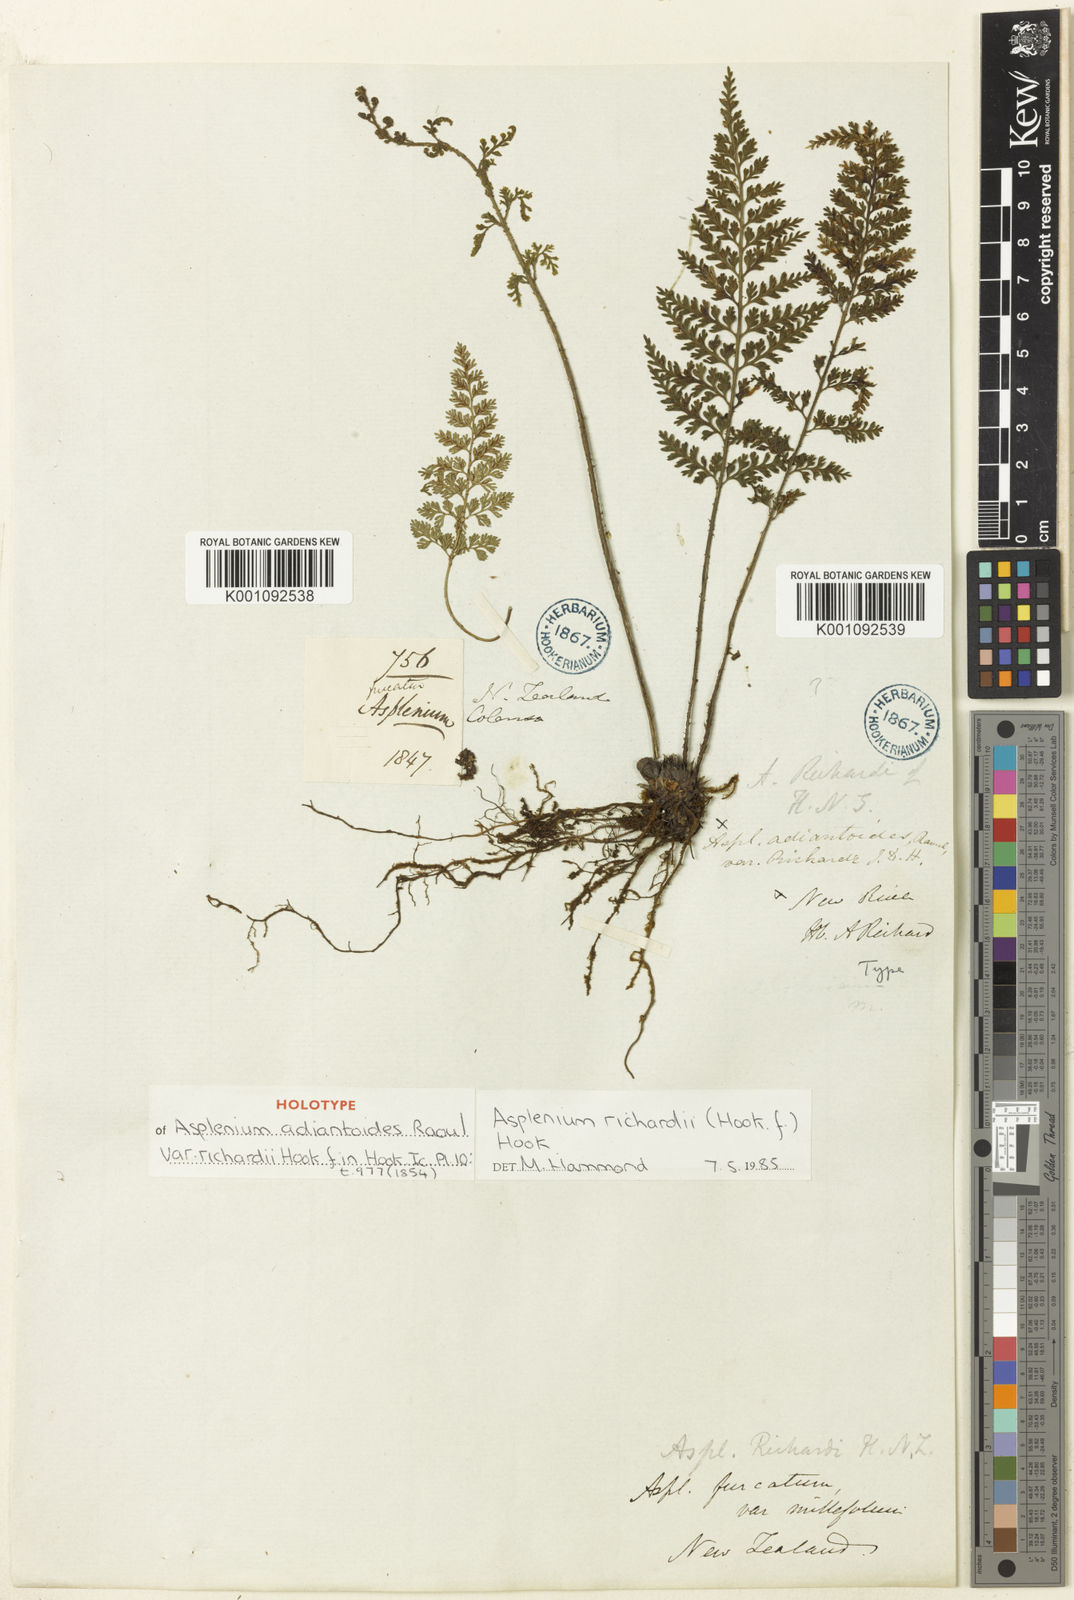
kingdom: Plantae
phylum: Tracheophyta
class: Polypodiopsida
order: Polypodiales
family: Aspleniaceae
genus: Asplenium
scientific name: Asplenium richardii
